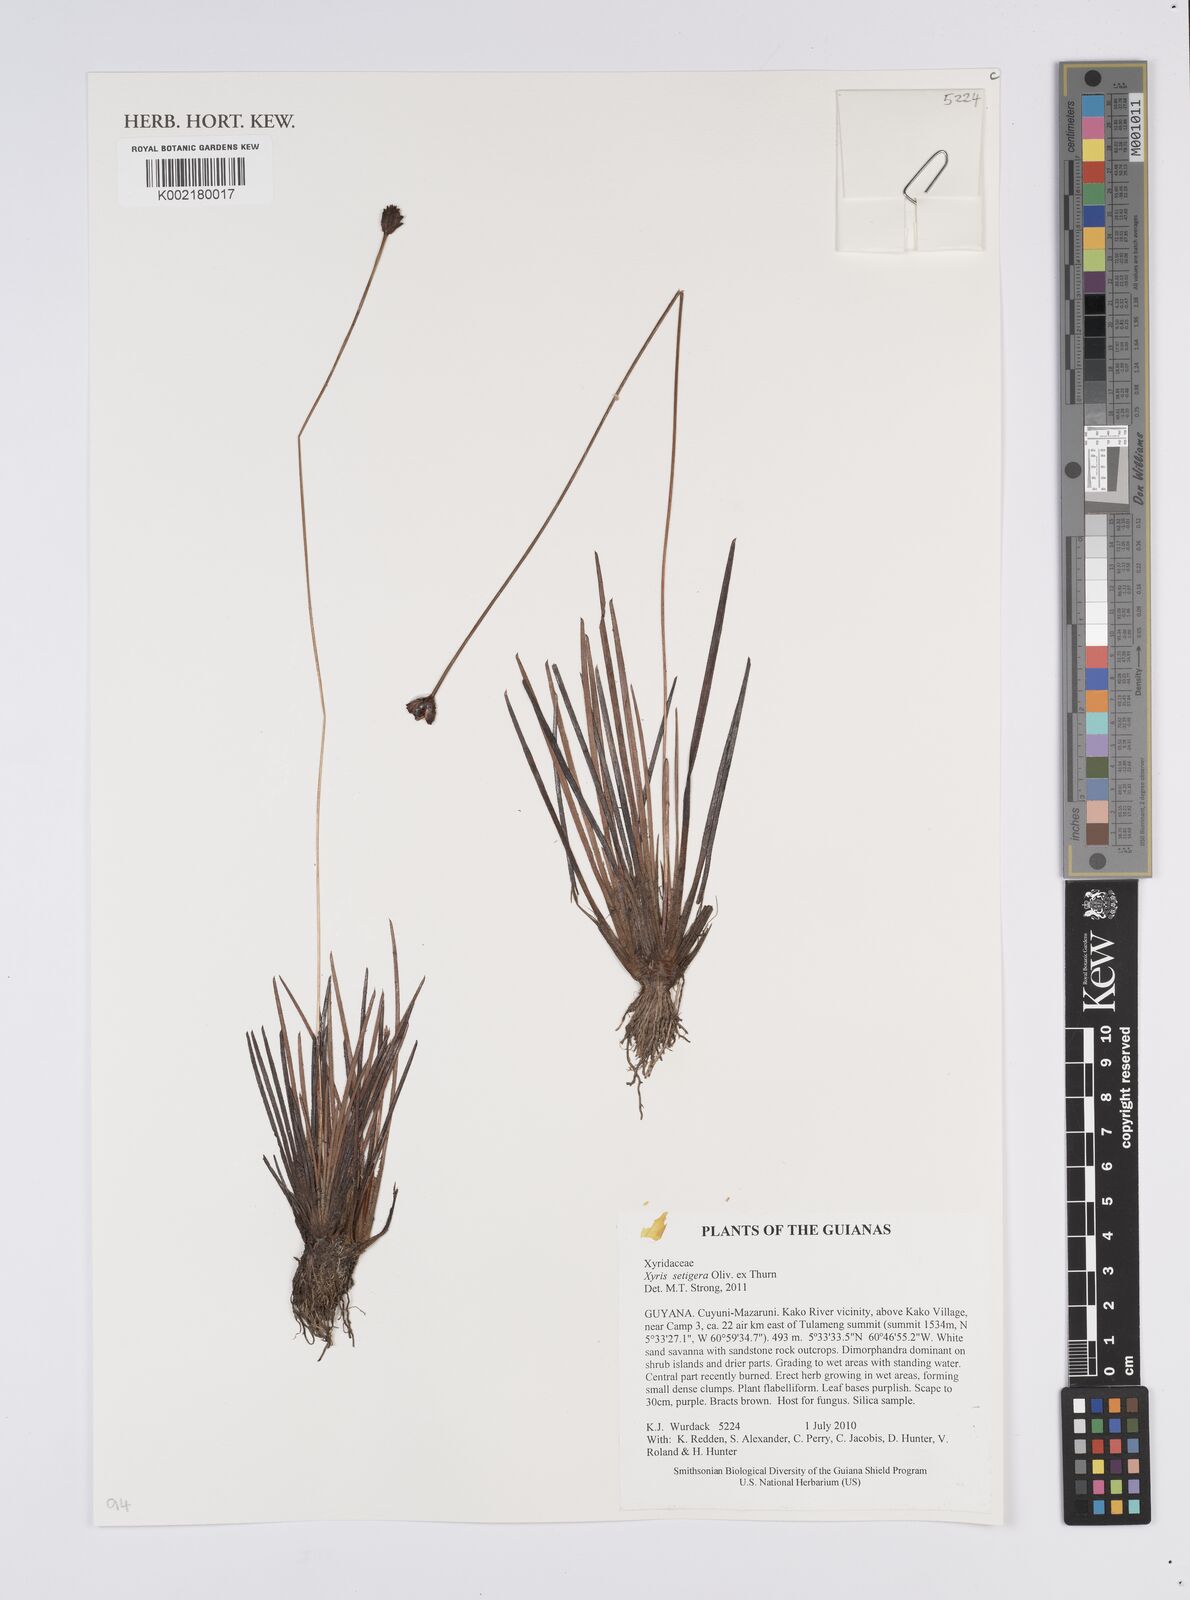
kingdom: Plantae
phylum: Tracheophyta
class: Liliopsida
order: Poales
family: Xyridaceae
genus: Xyris
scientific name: Xyris setigera
